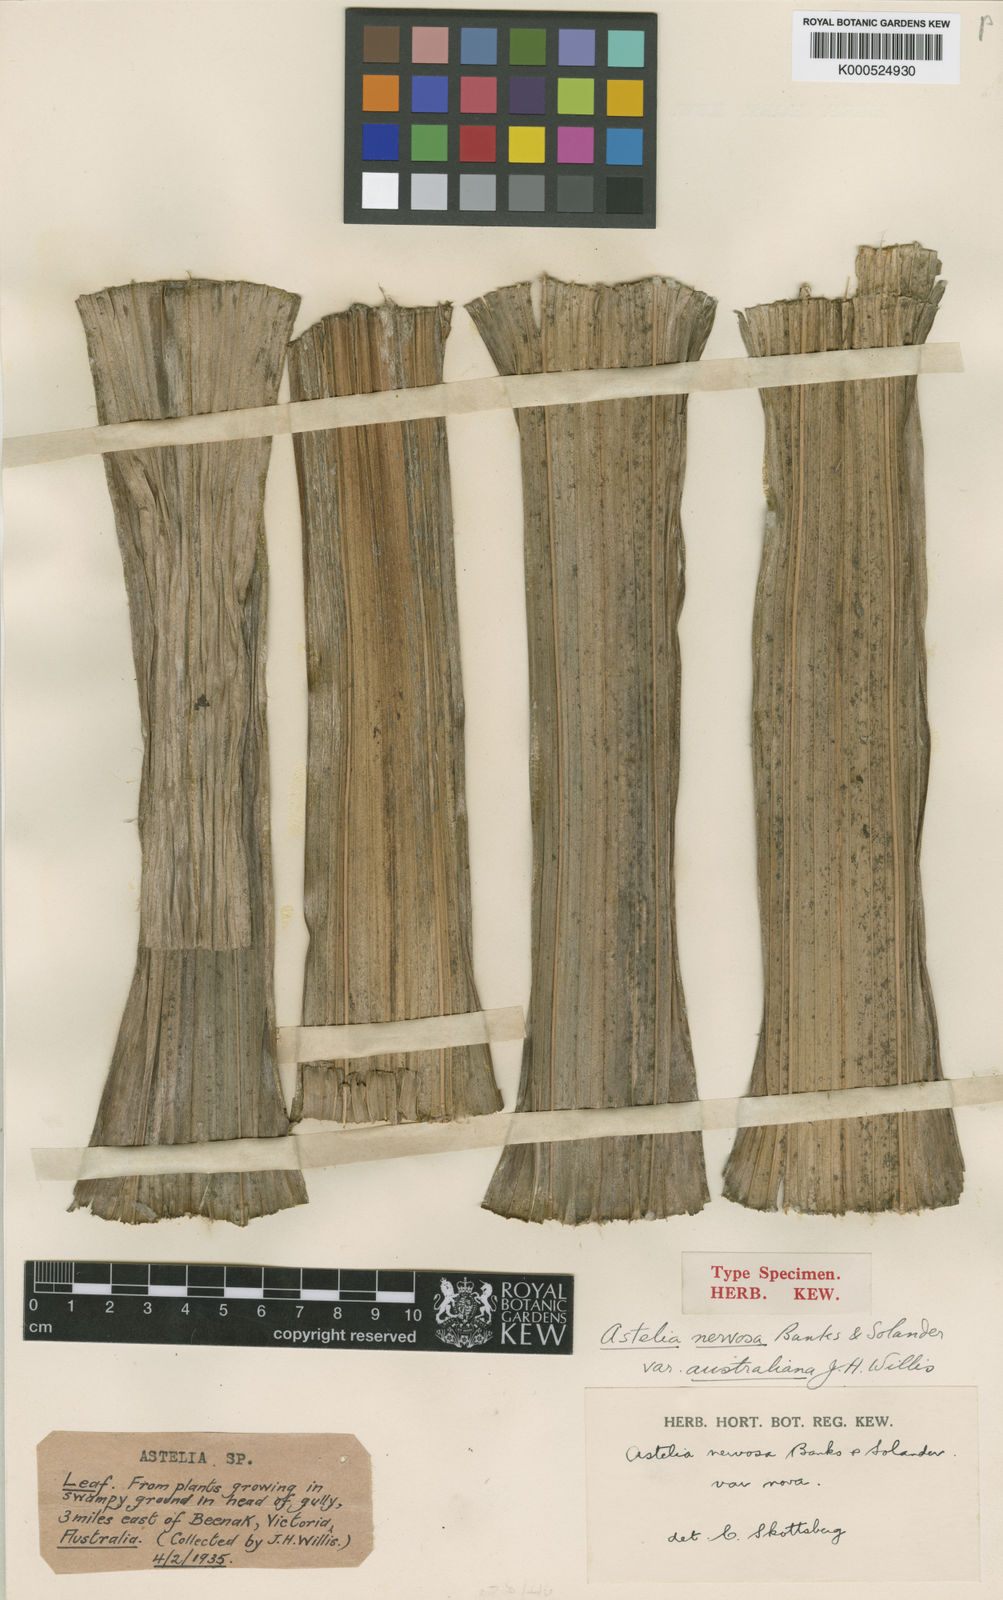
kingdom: Plantae
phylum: Tracheophyta
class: Liliopsida
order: Asparagales
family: Asteliaceae
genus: Astelia
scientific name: Astelia australiana
